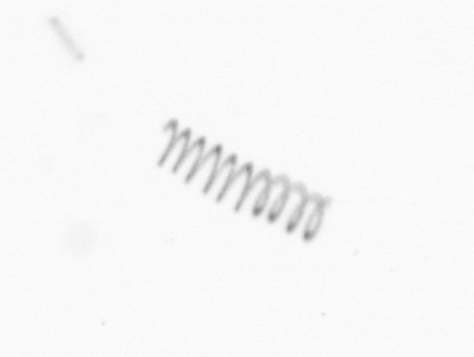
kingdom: Chromista
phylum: Ochrophyta
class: Bacillariophyceae
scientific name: Bacillariophyceae
